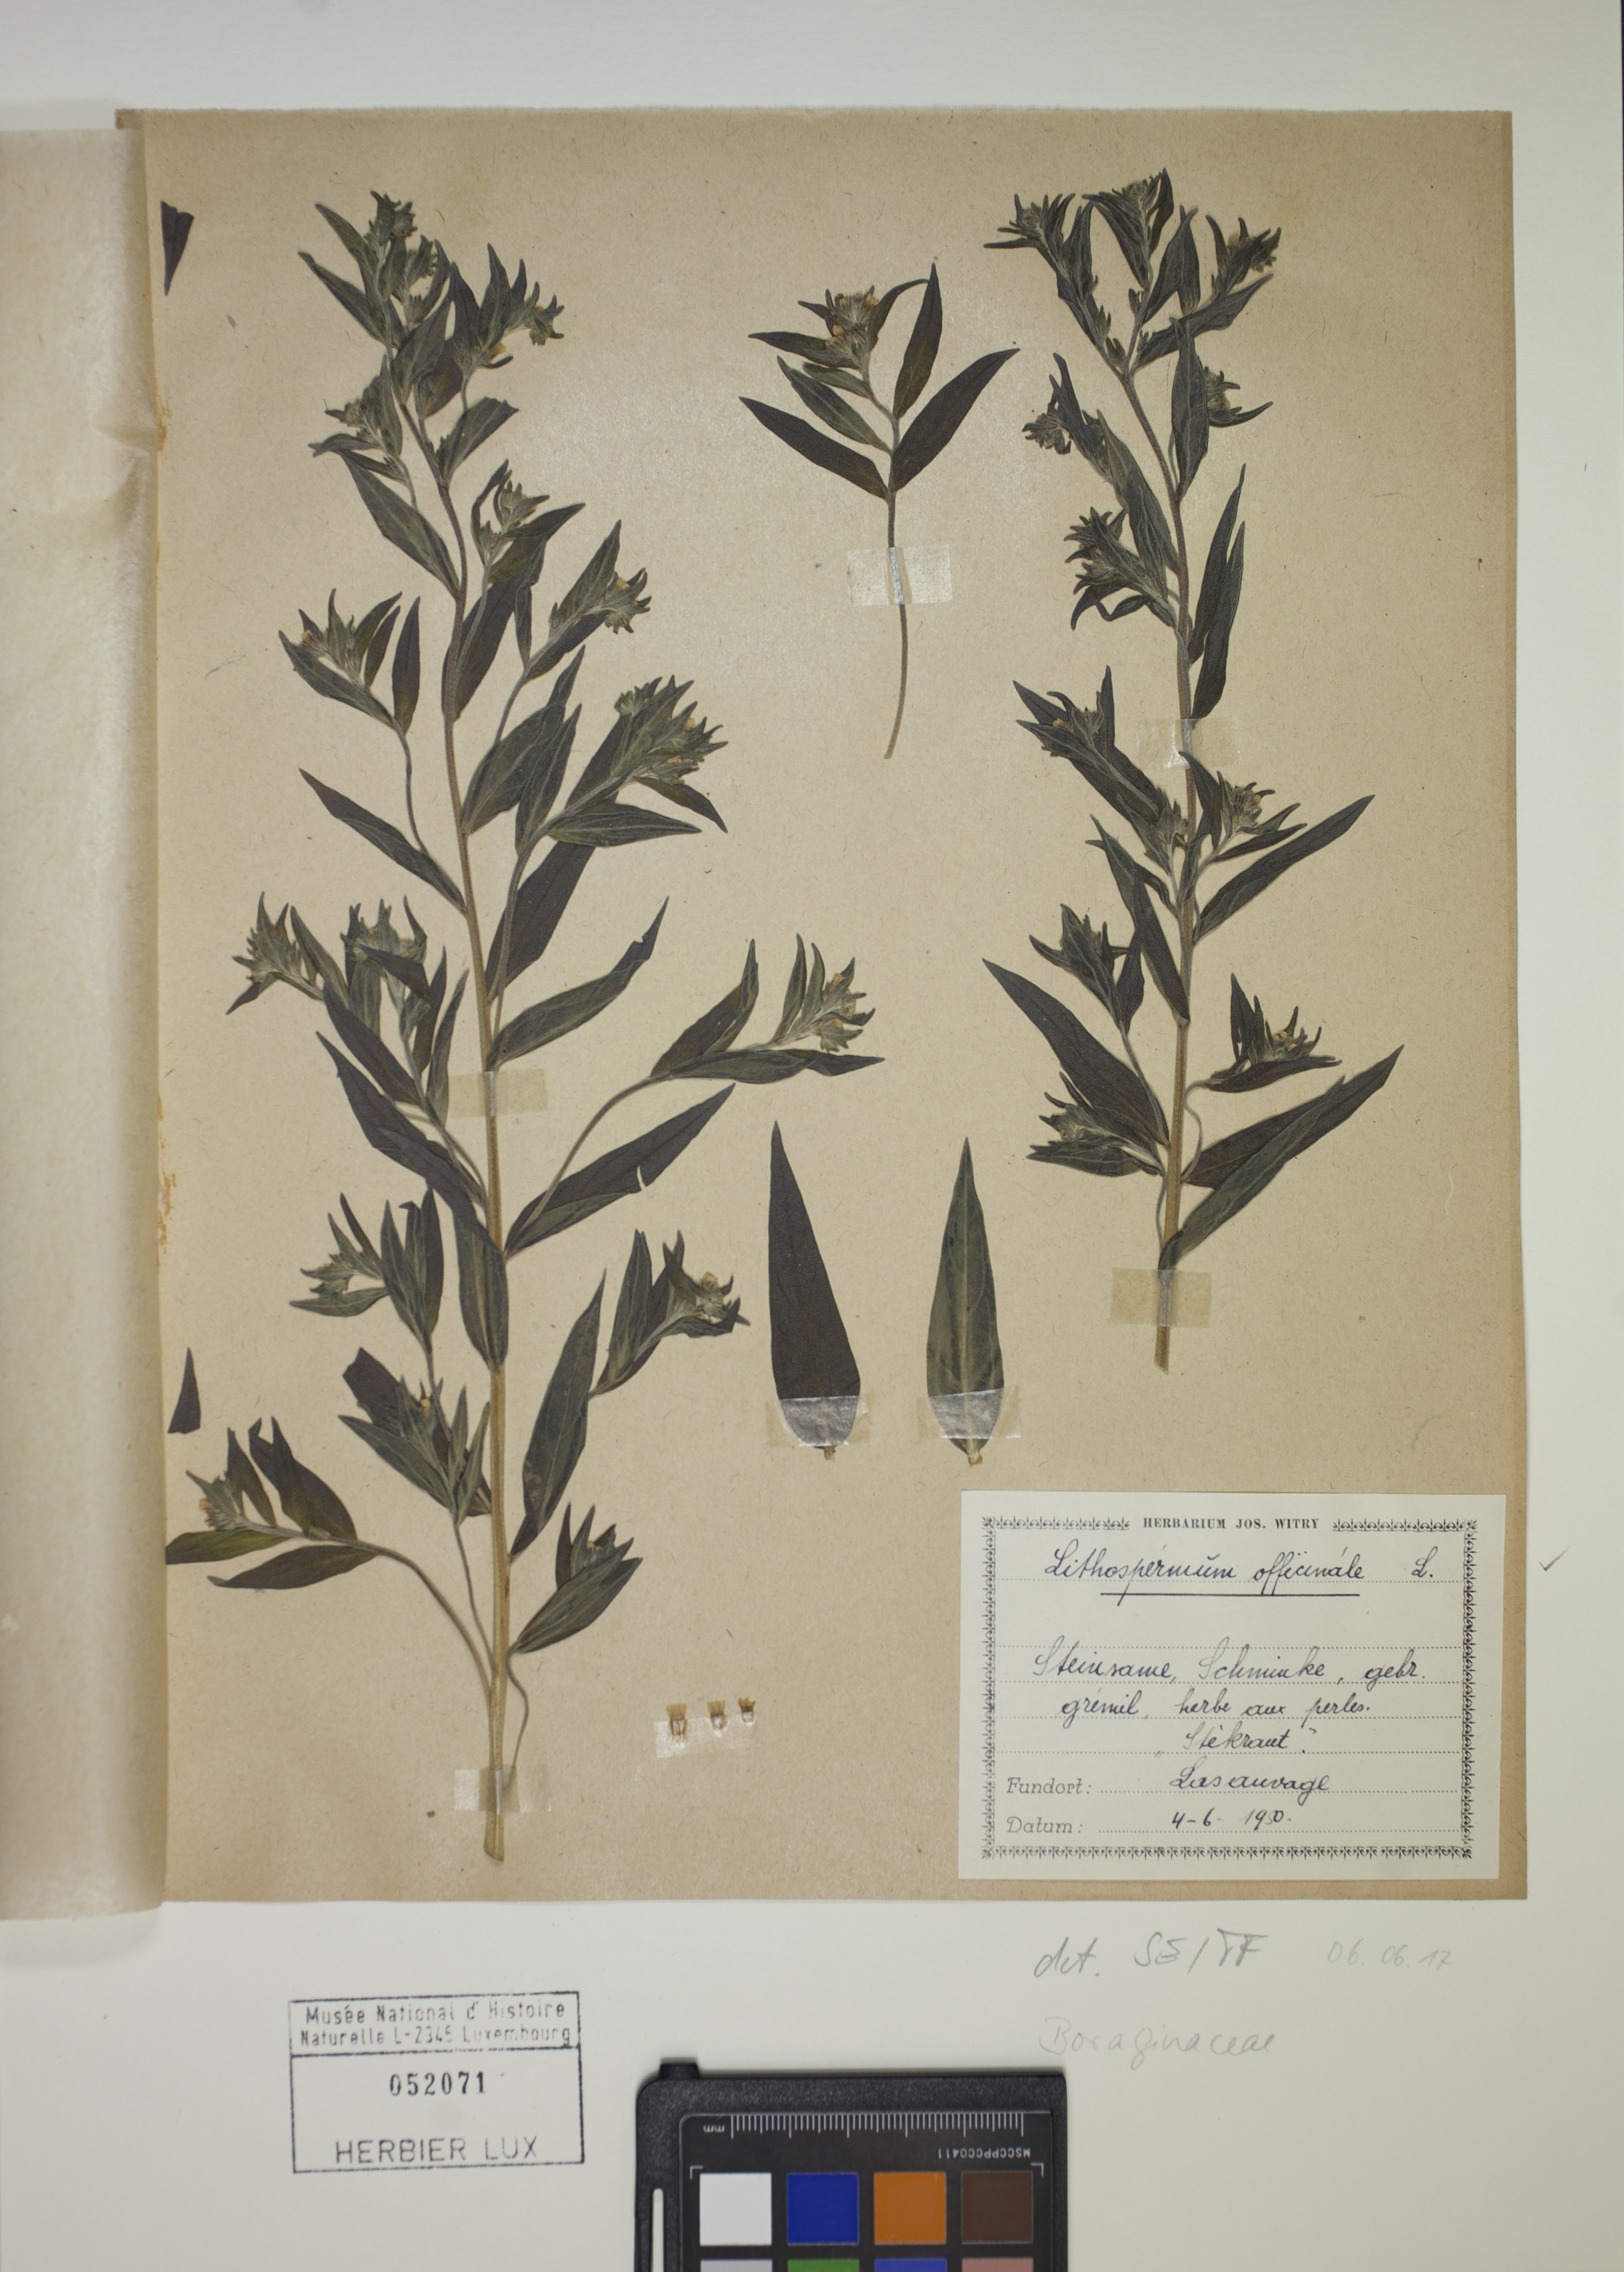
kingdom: Plantae
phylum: Tracheophyta
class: Magnoliopsida
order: Boraginales
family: Boraginaceae
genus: Lithospermum
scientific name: Lithospermum officinale
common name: Common gromwell
